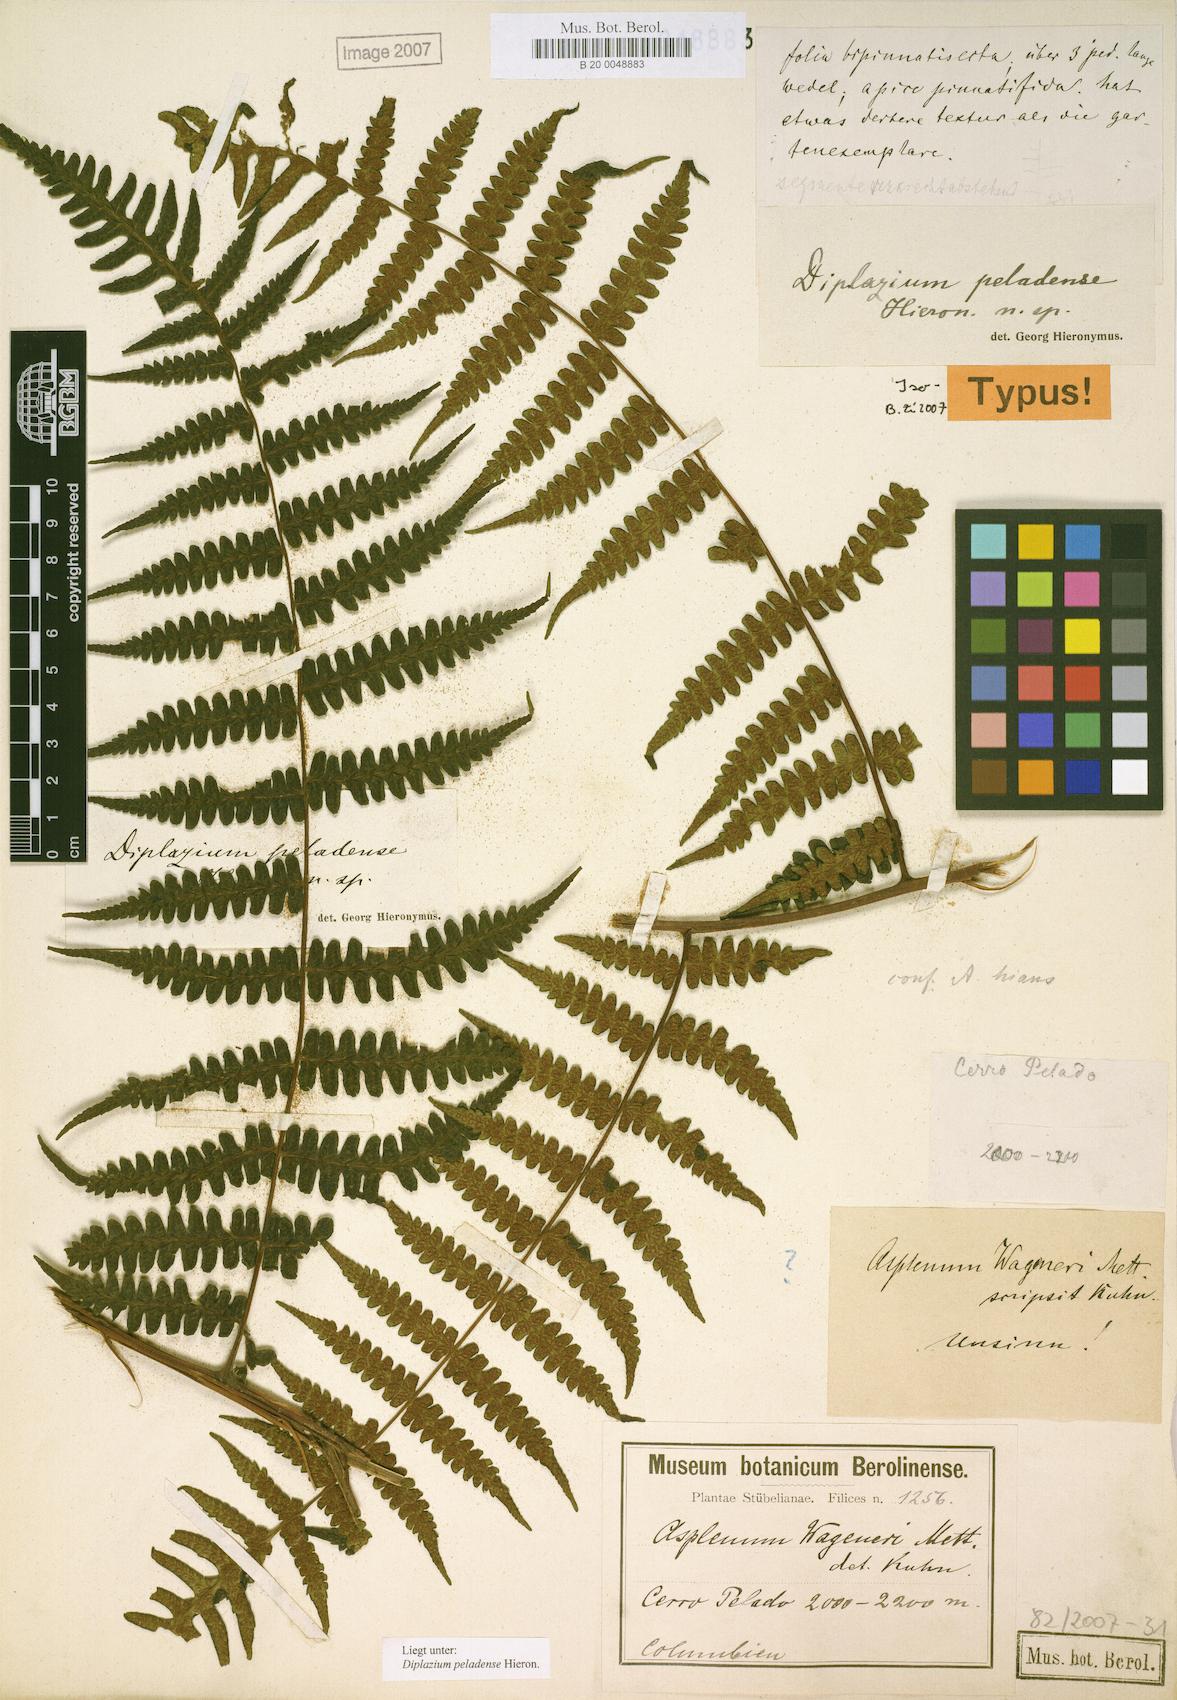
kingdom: Plantae
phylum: Tracheophyta
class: Polypodiopsida
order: Polypodiales
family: Athyriaceae
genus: Diplazium
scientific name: Diplazium peladense
